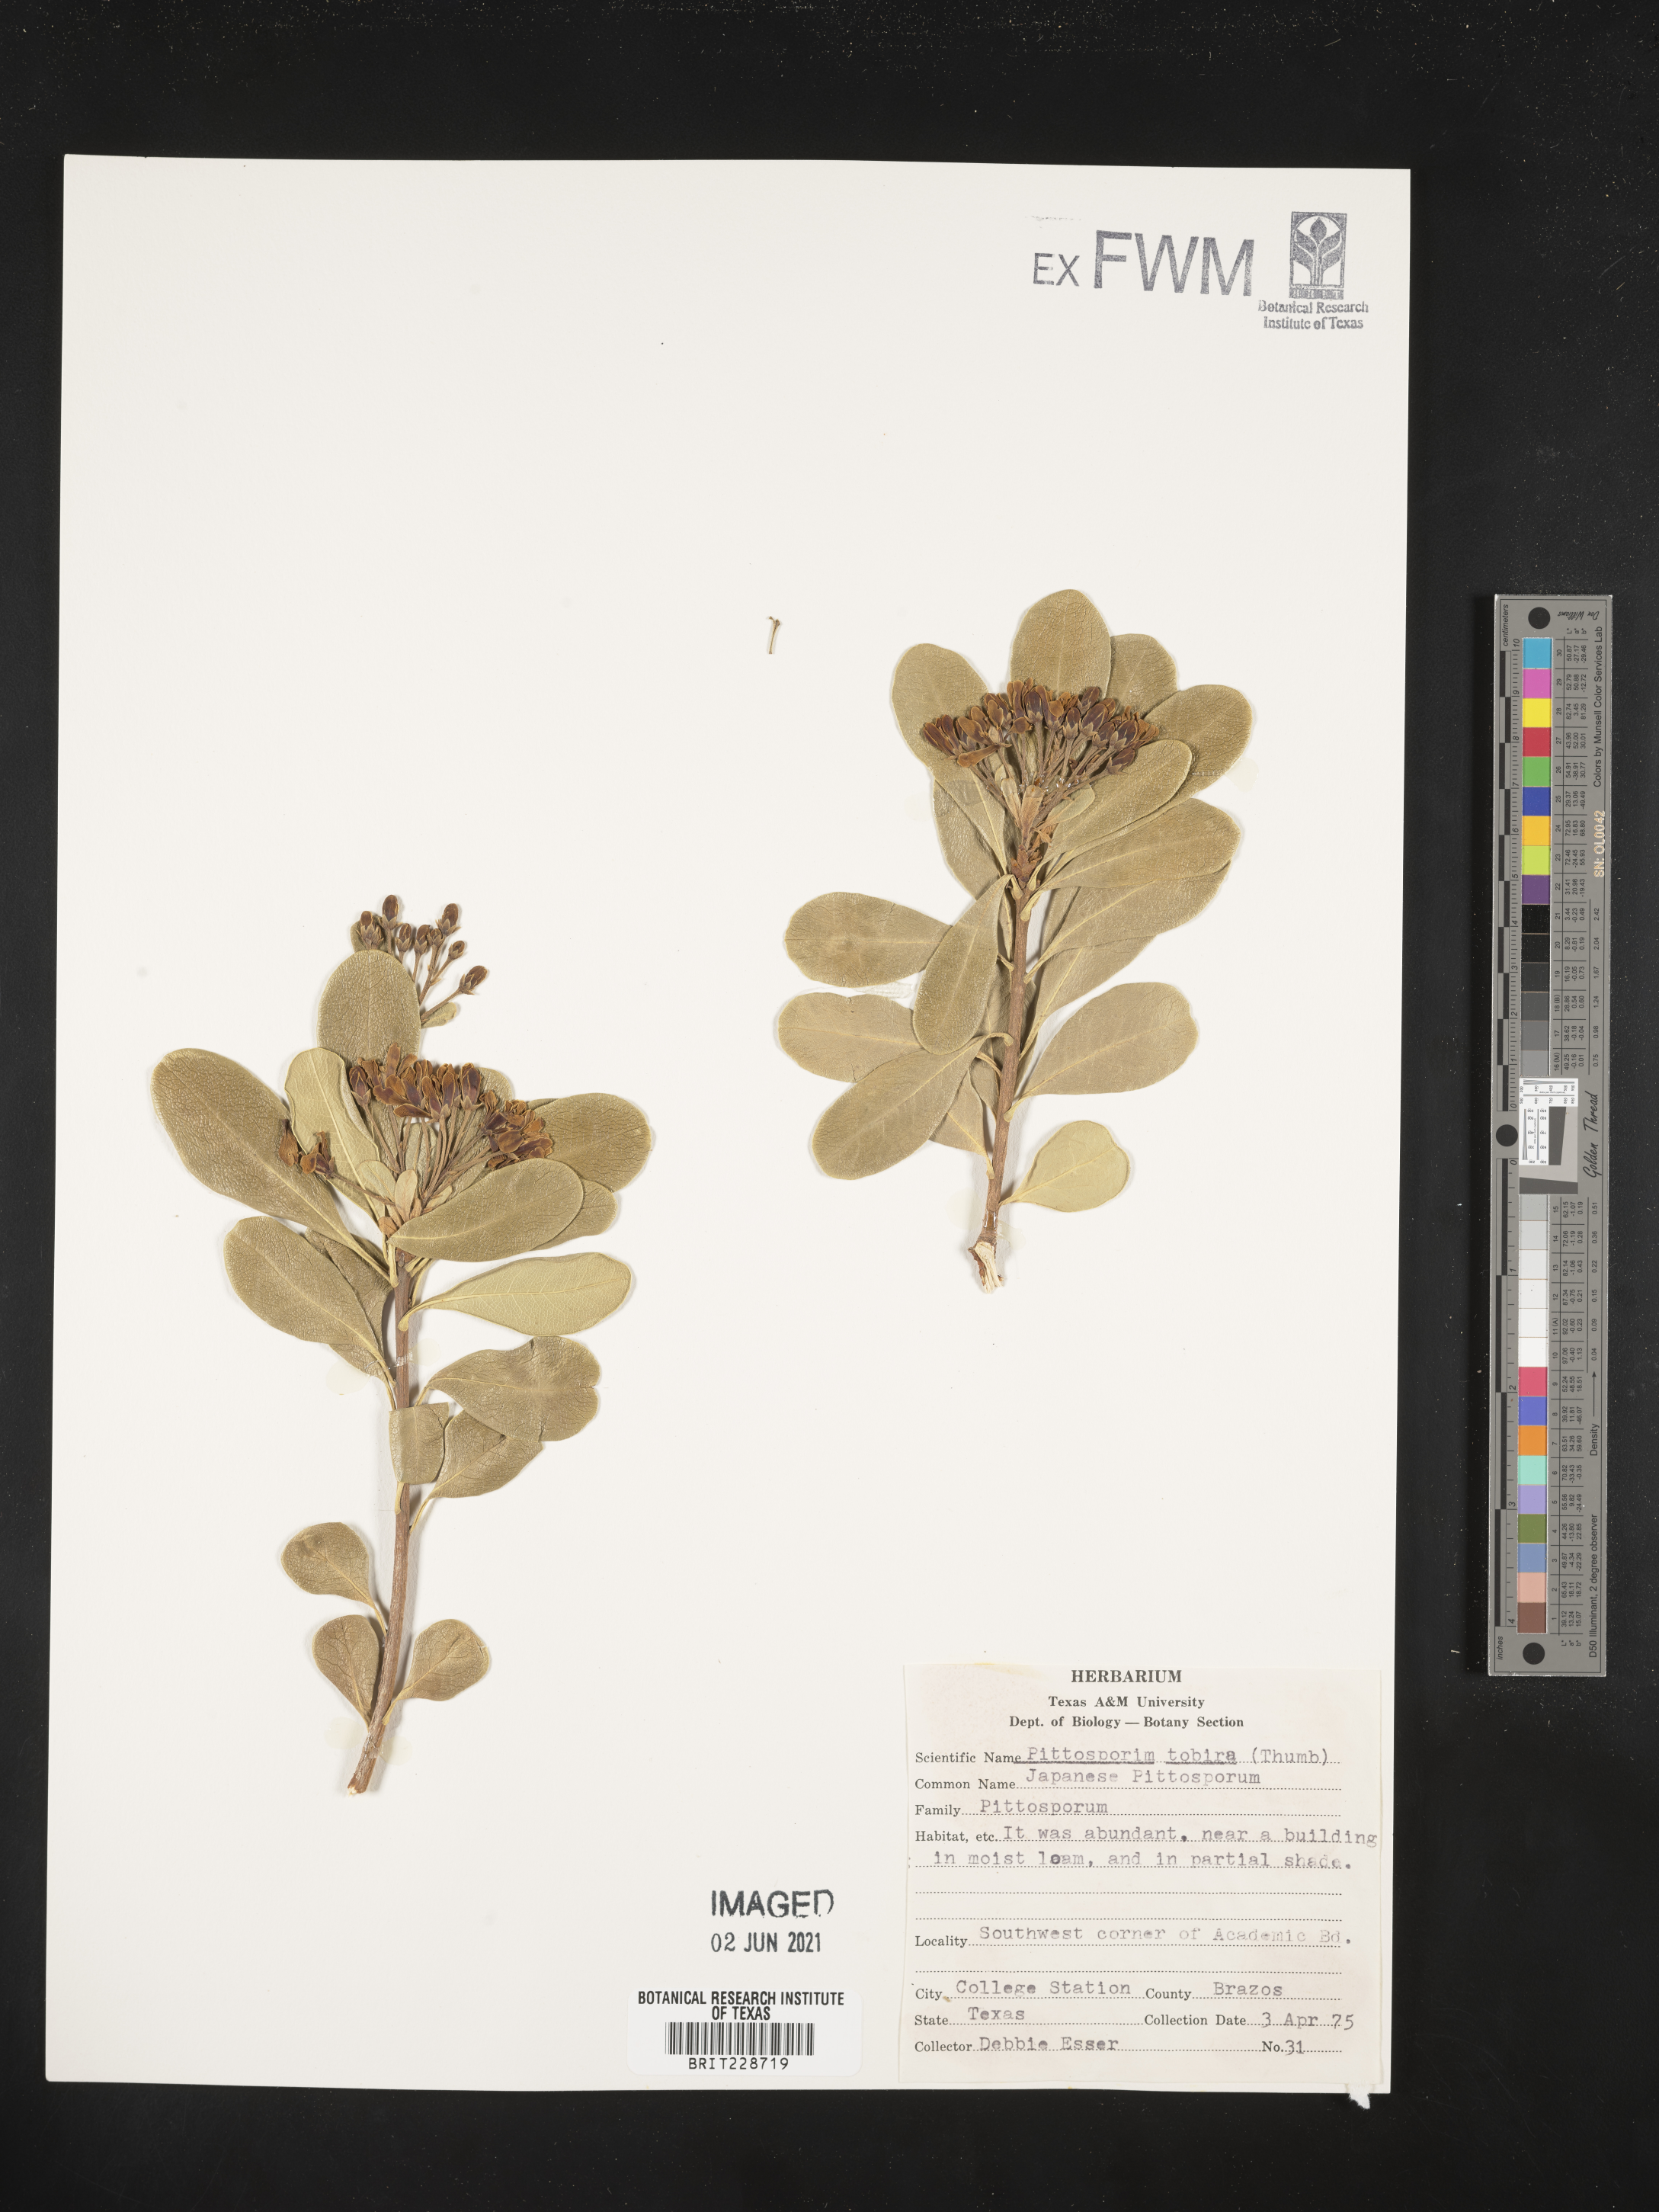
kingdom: Plantae
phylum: Tracheophyta
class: Magnoliopsida
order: Apiales
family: Pittosporaceae
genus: Pittosporum
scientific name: Pittosporum tobira
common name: Japanese cheesewood
